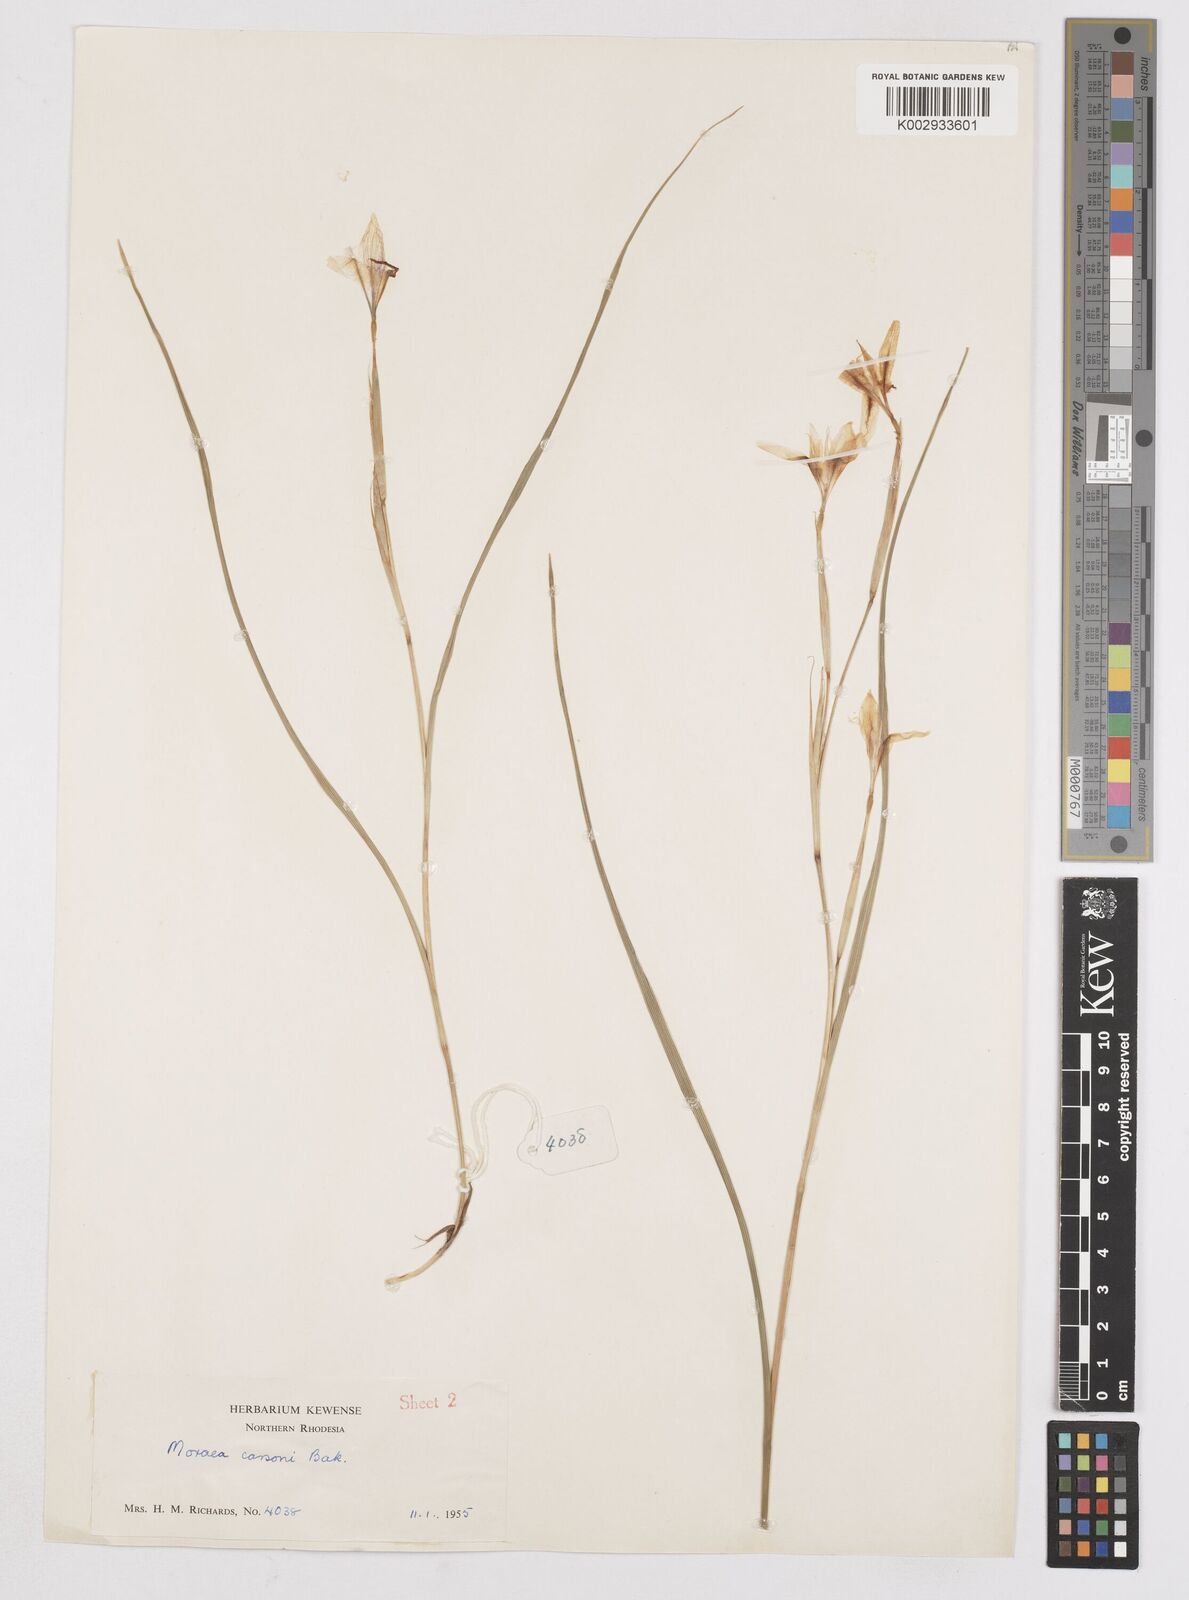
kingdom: Plantae
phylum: Tracheophyta
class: Liliopsida
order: Asparagales
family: Iridaceae
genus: Moraea
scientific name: Moraea carsonii
